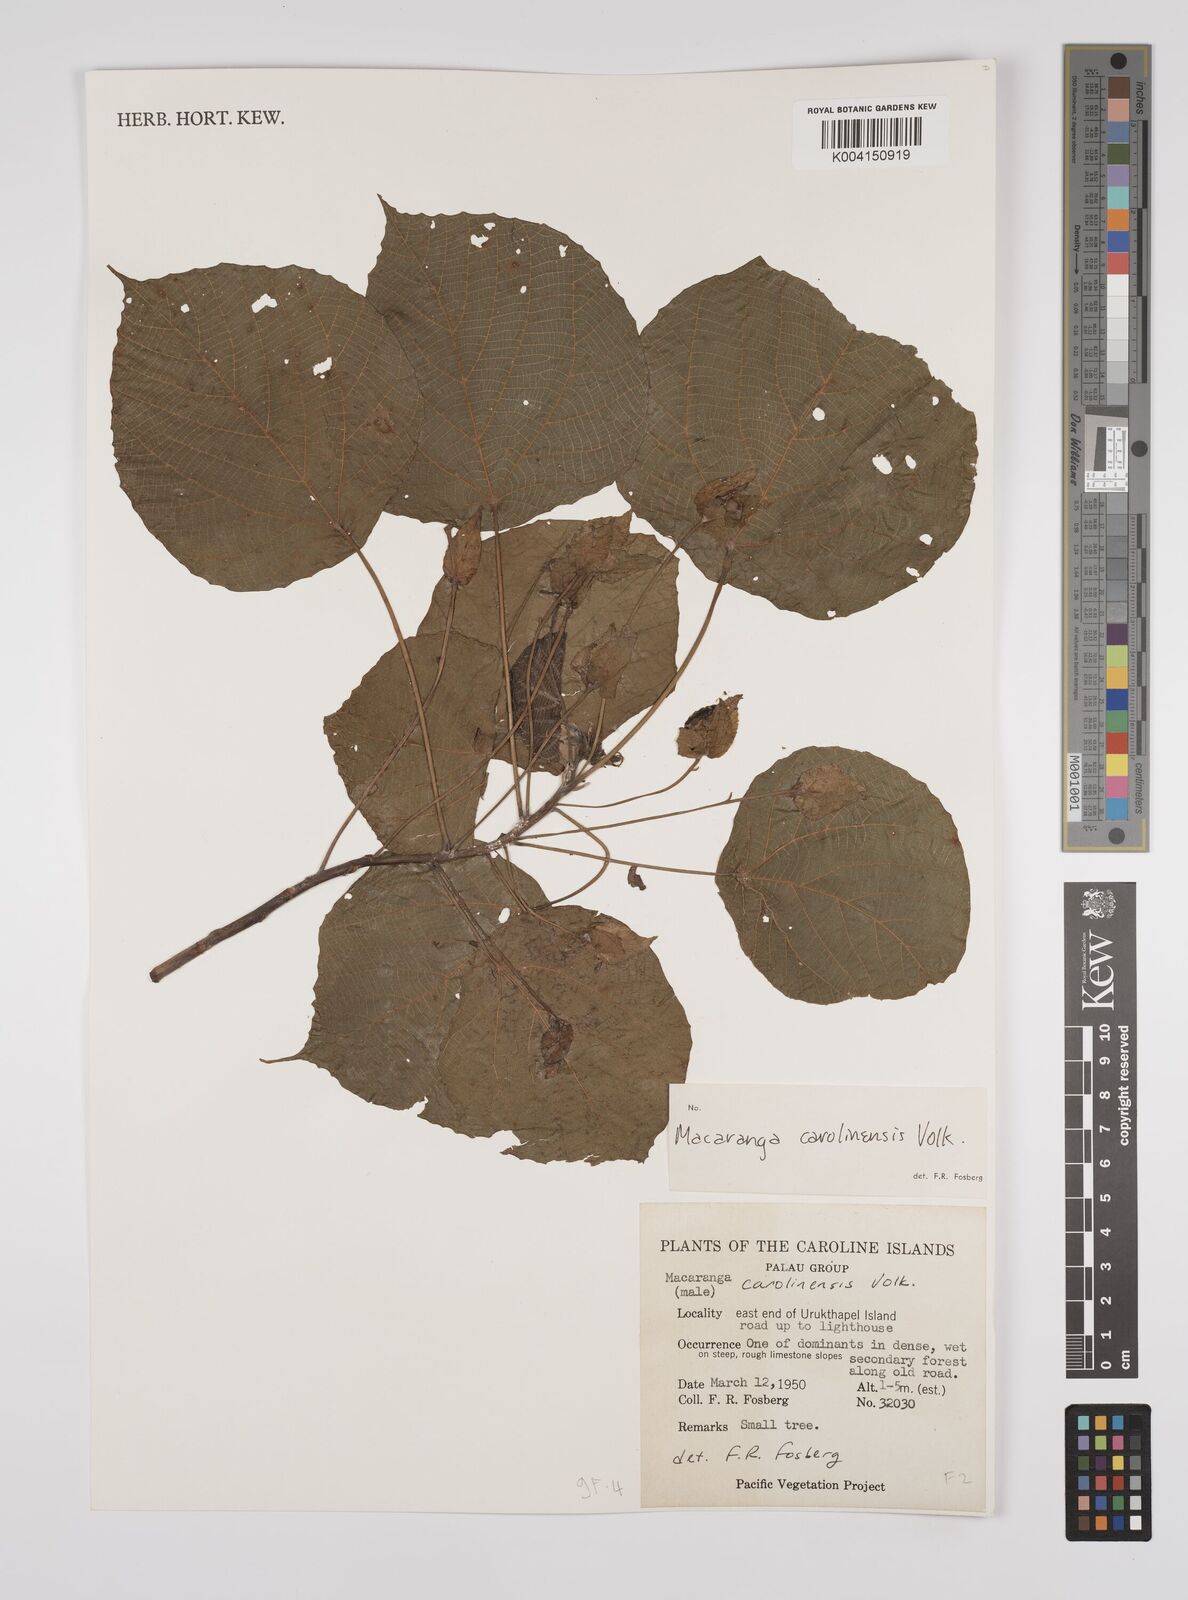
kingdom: Plantae
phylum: Tracheophyta
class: Magnoliopsida
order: Malpighiales
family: Euphorbiaceae
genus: Macaranga
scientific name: Macaranga carolinensis
